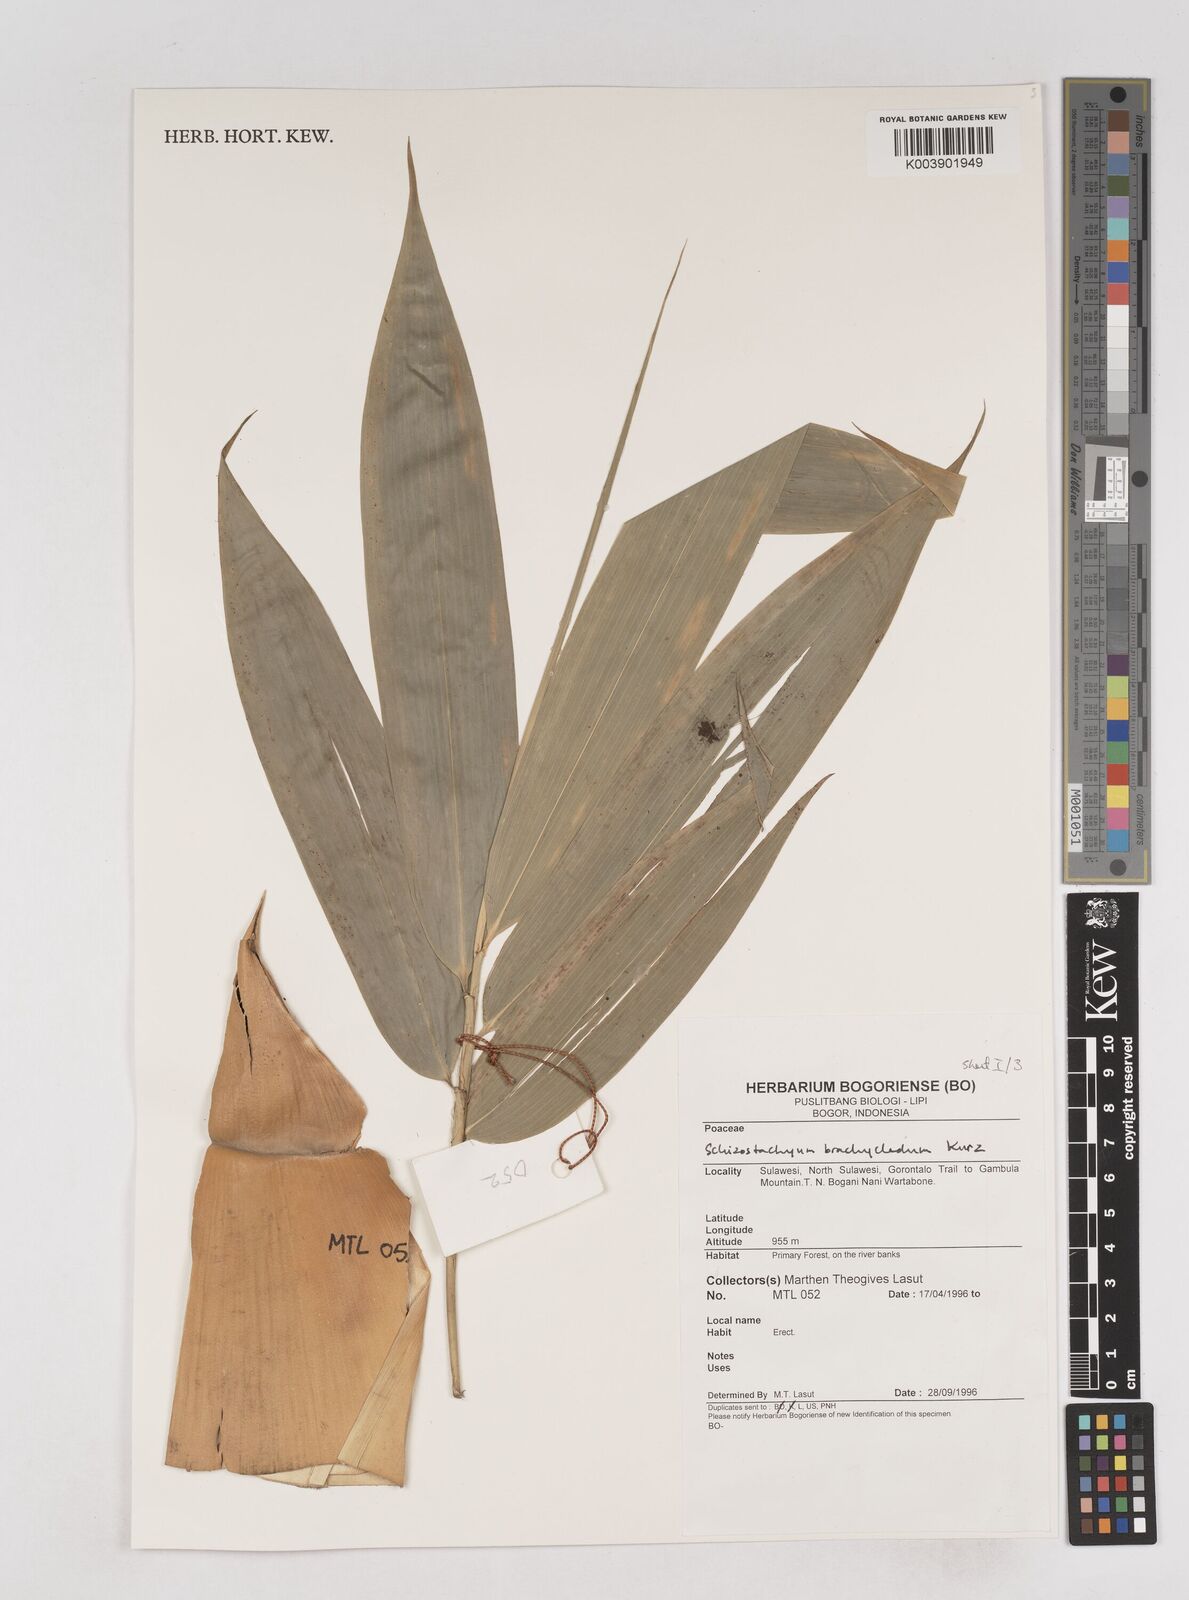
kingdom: Plantae
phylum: Tracheophyta
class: Liliopsida
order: Poales
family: Poaceae
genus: Schizostachyum
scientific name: Schizostachyum brachycladum
